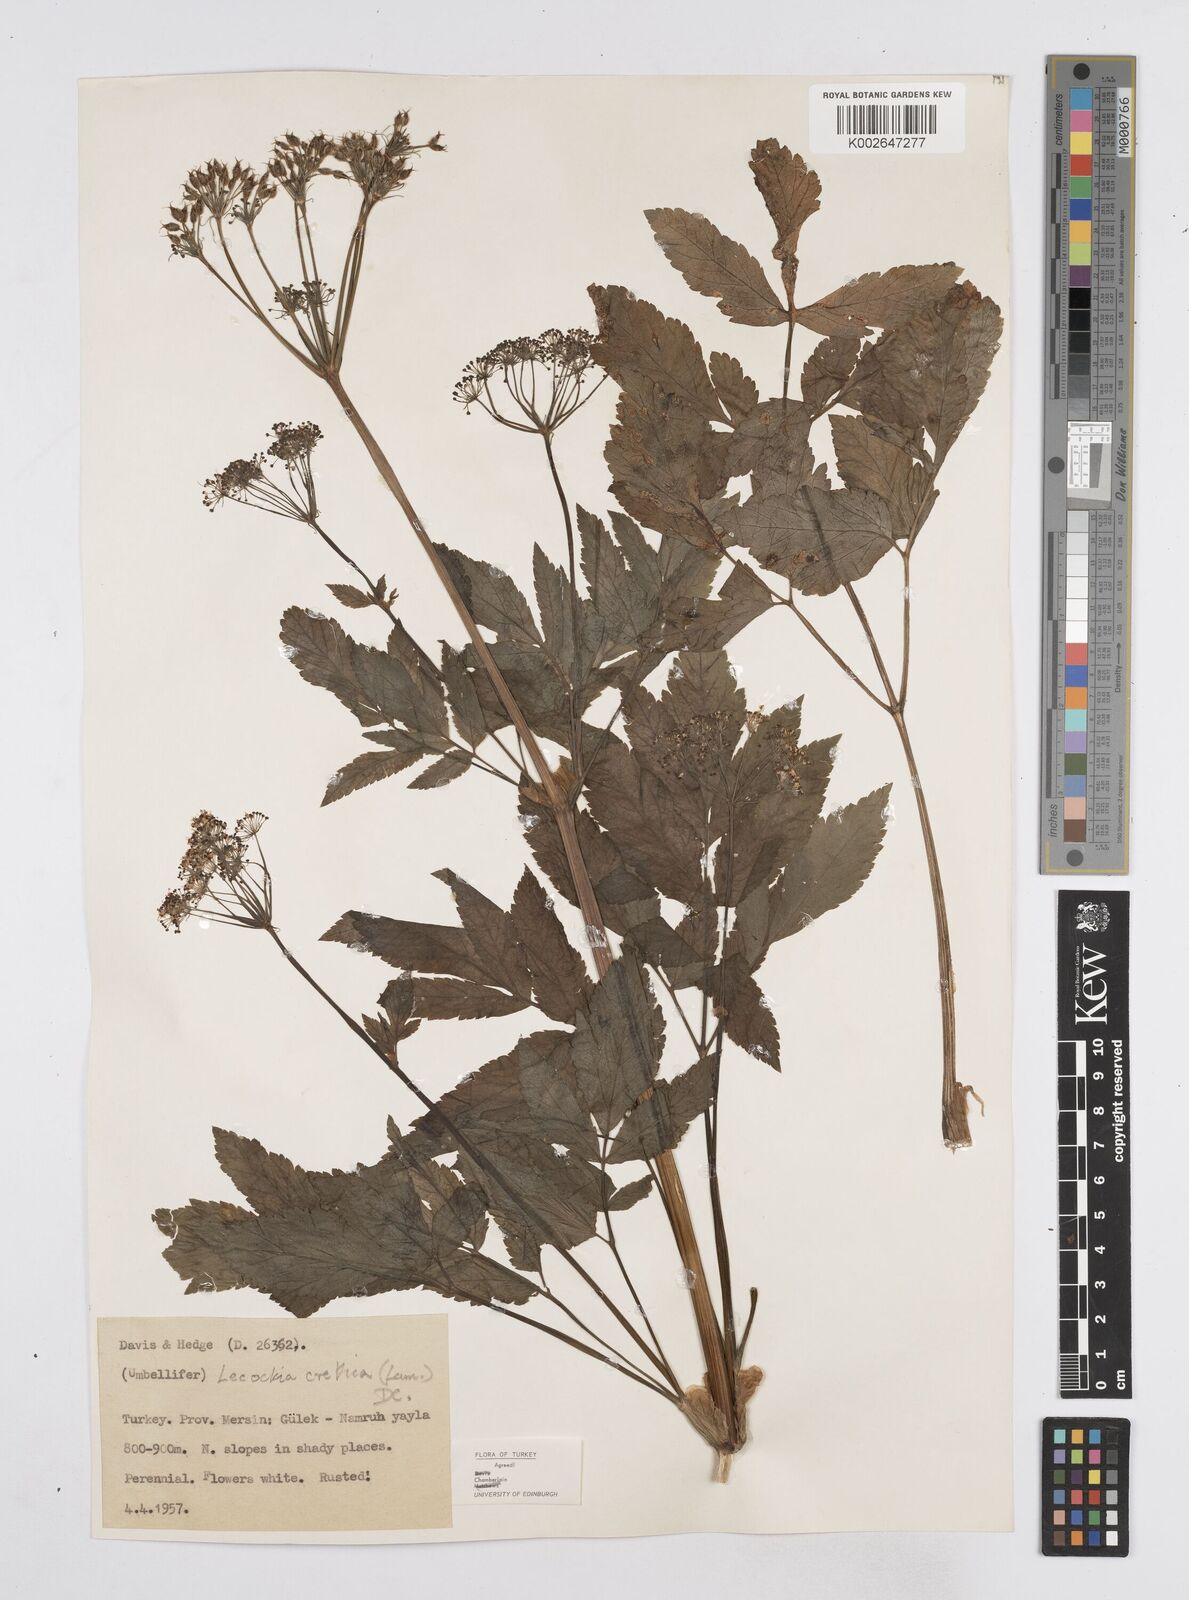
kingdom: Plantae
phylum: Tracheophyta
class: Magnoliopsida
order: Apiales
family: Apiaceae
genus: Lecokia
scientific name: Lecokia cretica
